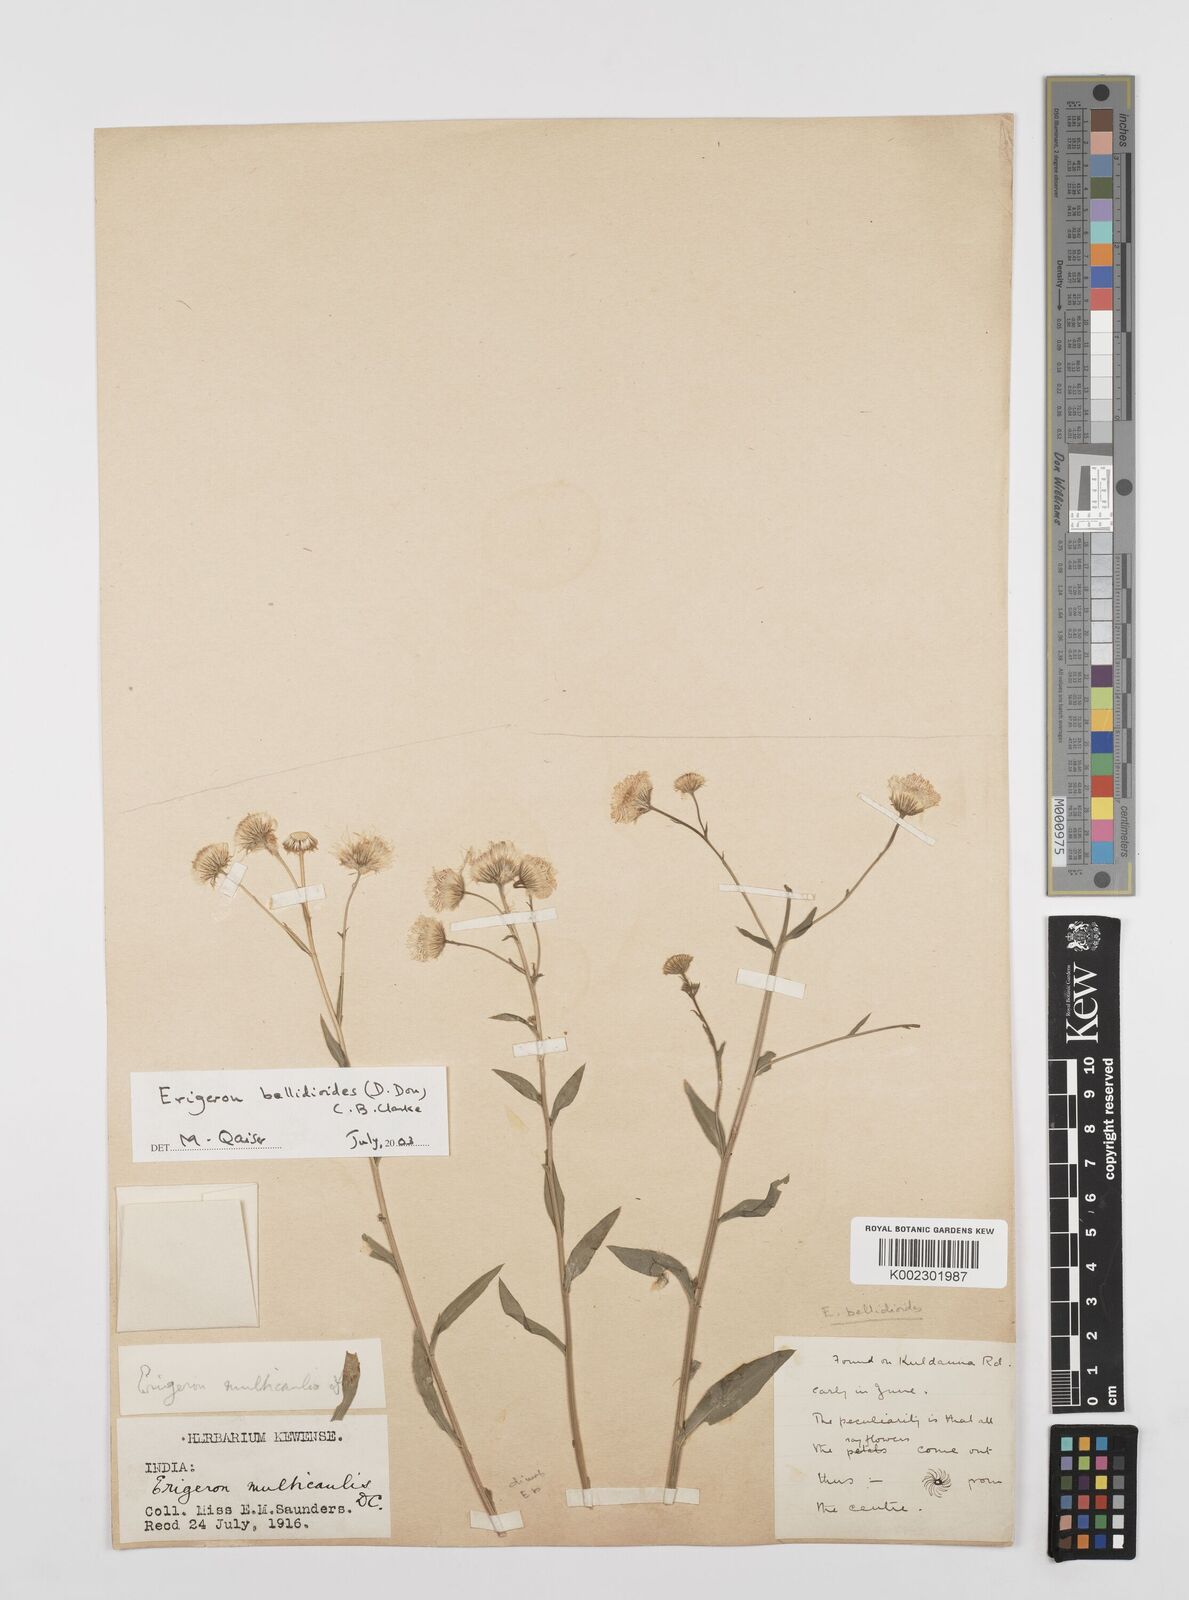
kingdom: Plantae
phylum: Tracheophyta
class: Magnoliopsida
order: Asterales
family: Asteraceae
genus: Erigeron
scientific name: Erigeron alpinus
